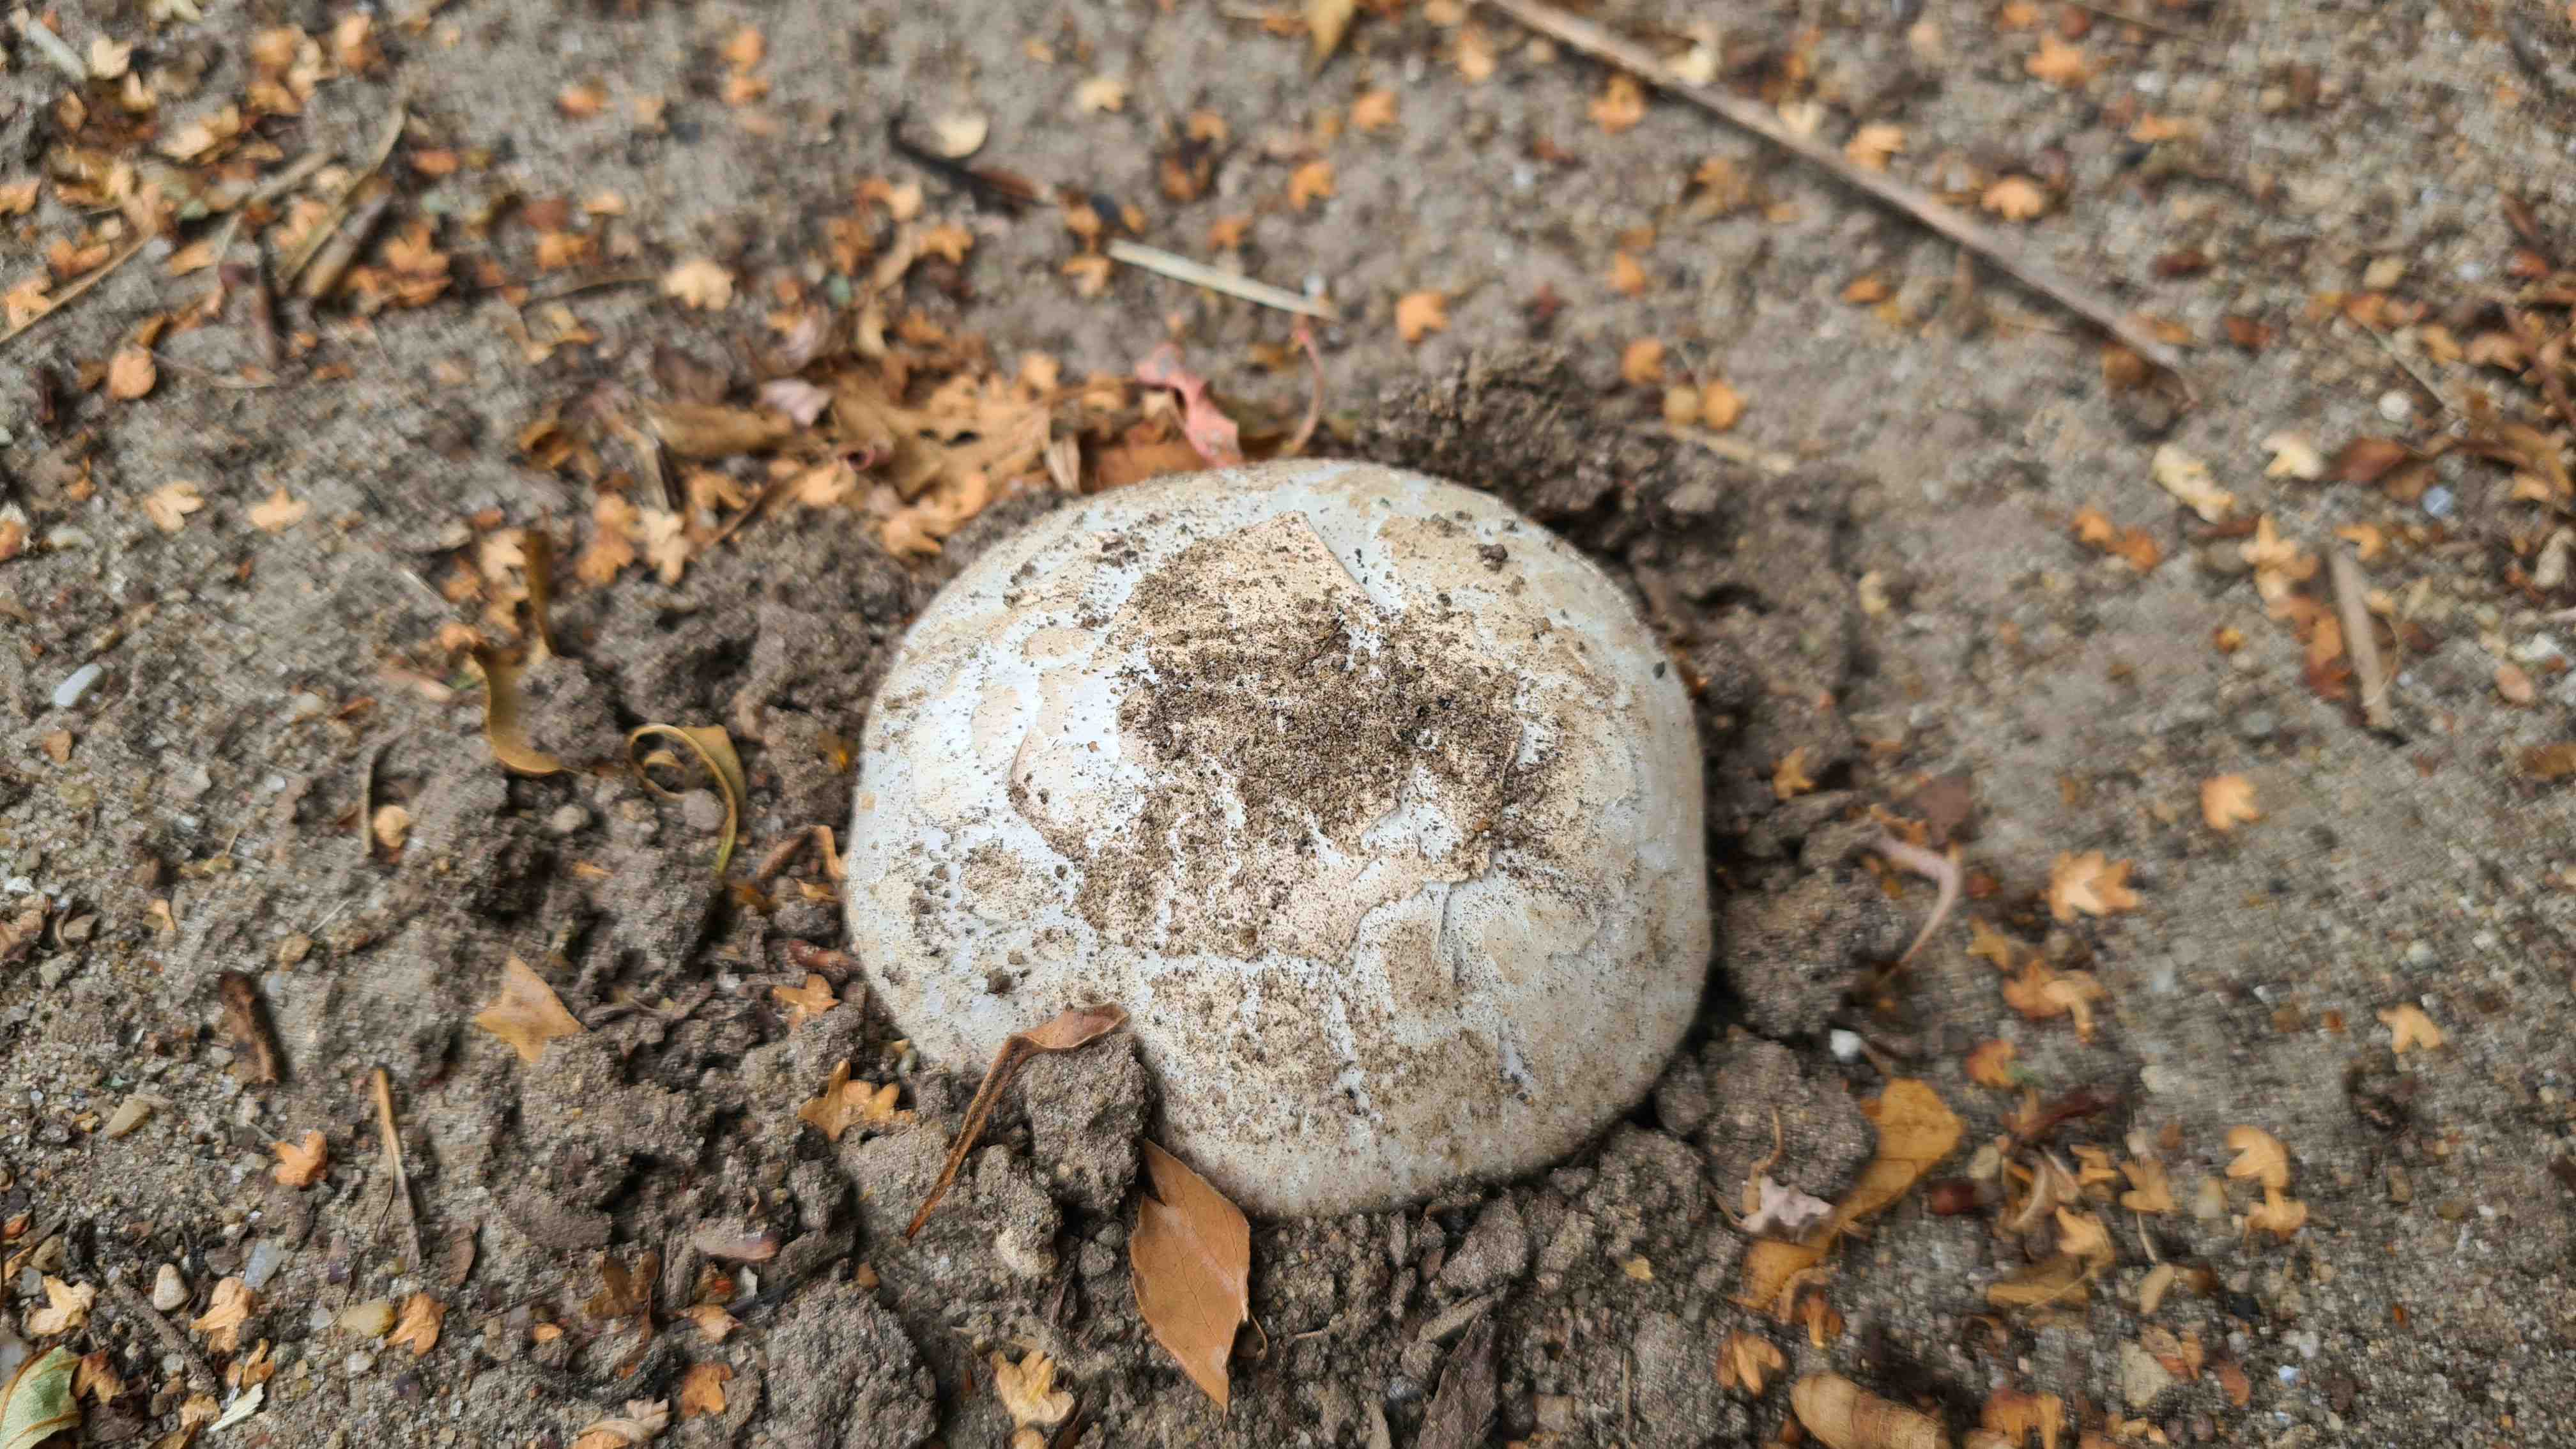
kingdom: Fungi
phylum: Basidiomycota
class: Agaricomycetes
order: Agaricales
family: Agaricaceae
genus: Agaricus
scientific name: Agaricus bitorquis
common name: vej-champignon
